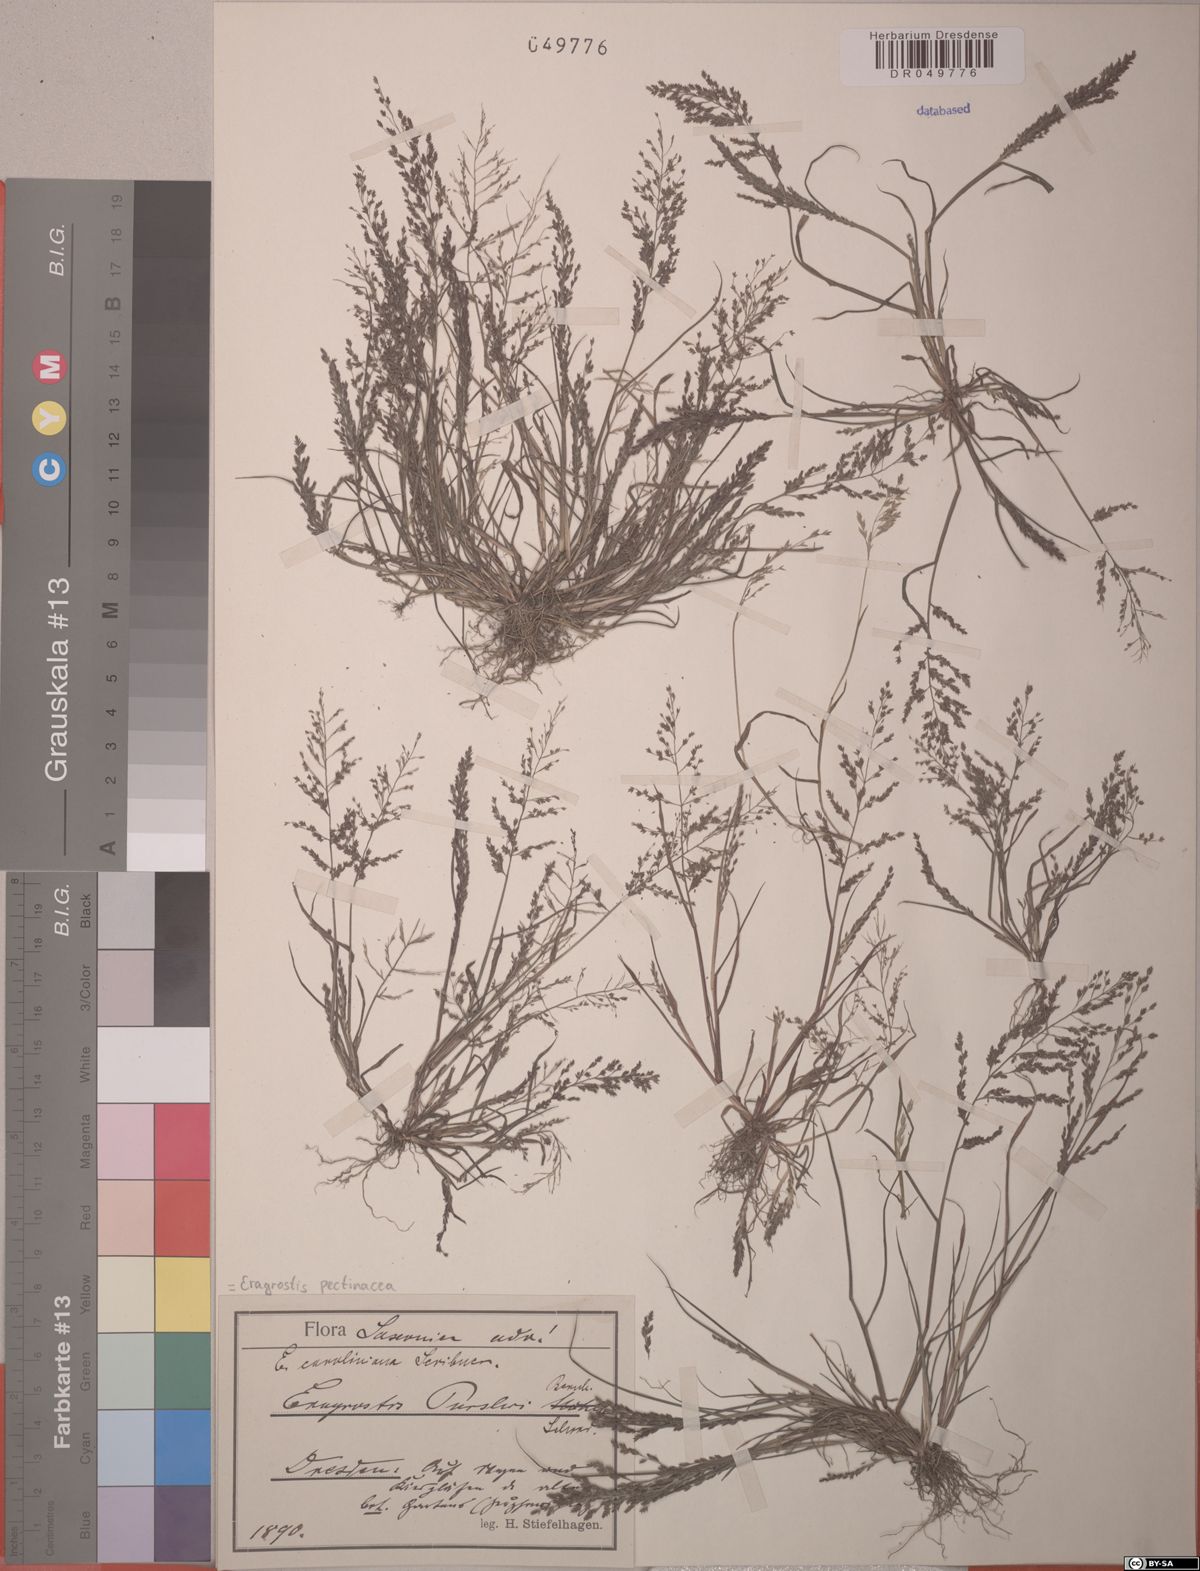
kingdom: Plantae
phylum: Tracheophyta
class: Liliopsida
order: Poales
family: Poaceae
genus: Eragrostis
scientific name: Eragrostis pectinacea
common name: Tufted lovegrass
